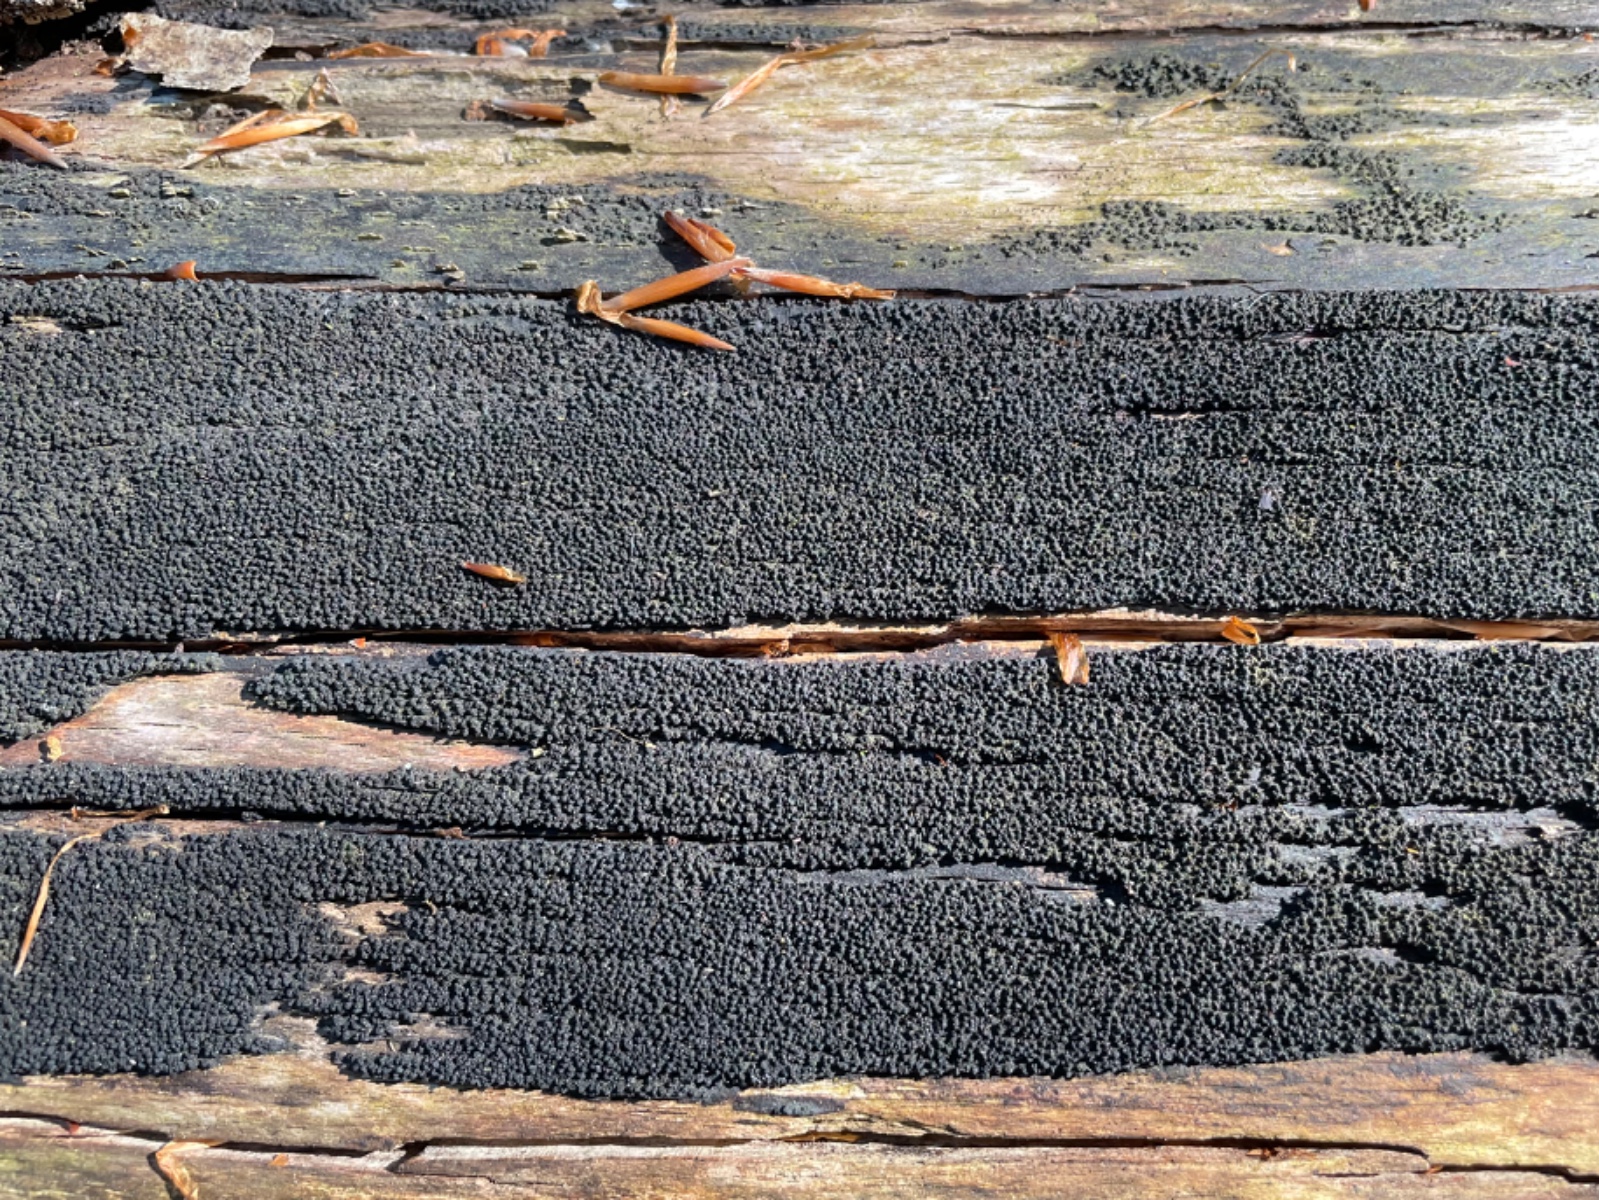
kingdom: Fungi
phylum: Ascomycota
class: Sordariomycetes
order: Xylariales
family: Diatrypaceae
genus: Eutypa
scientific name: Eutypa spinosa
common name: grov kulskorpe
